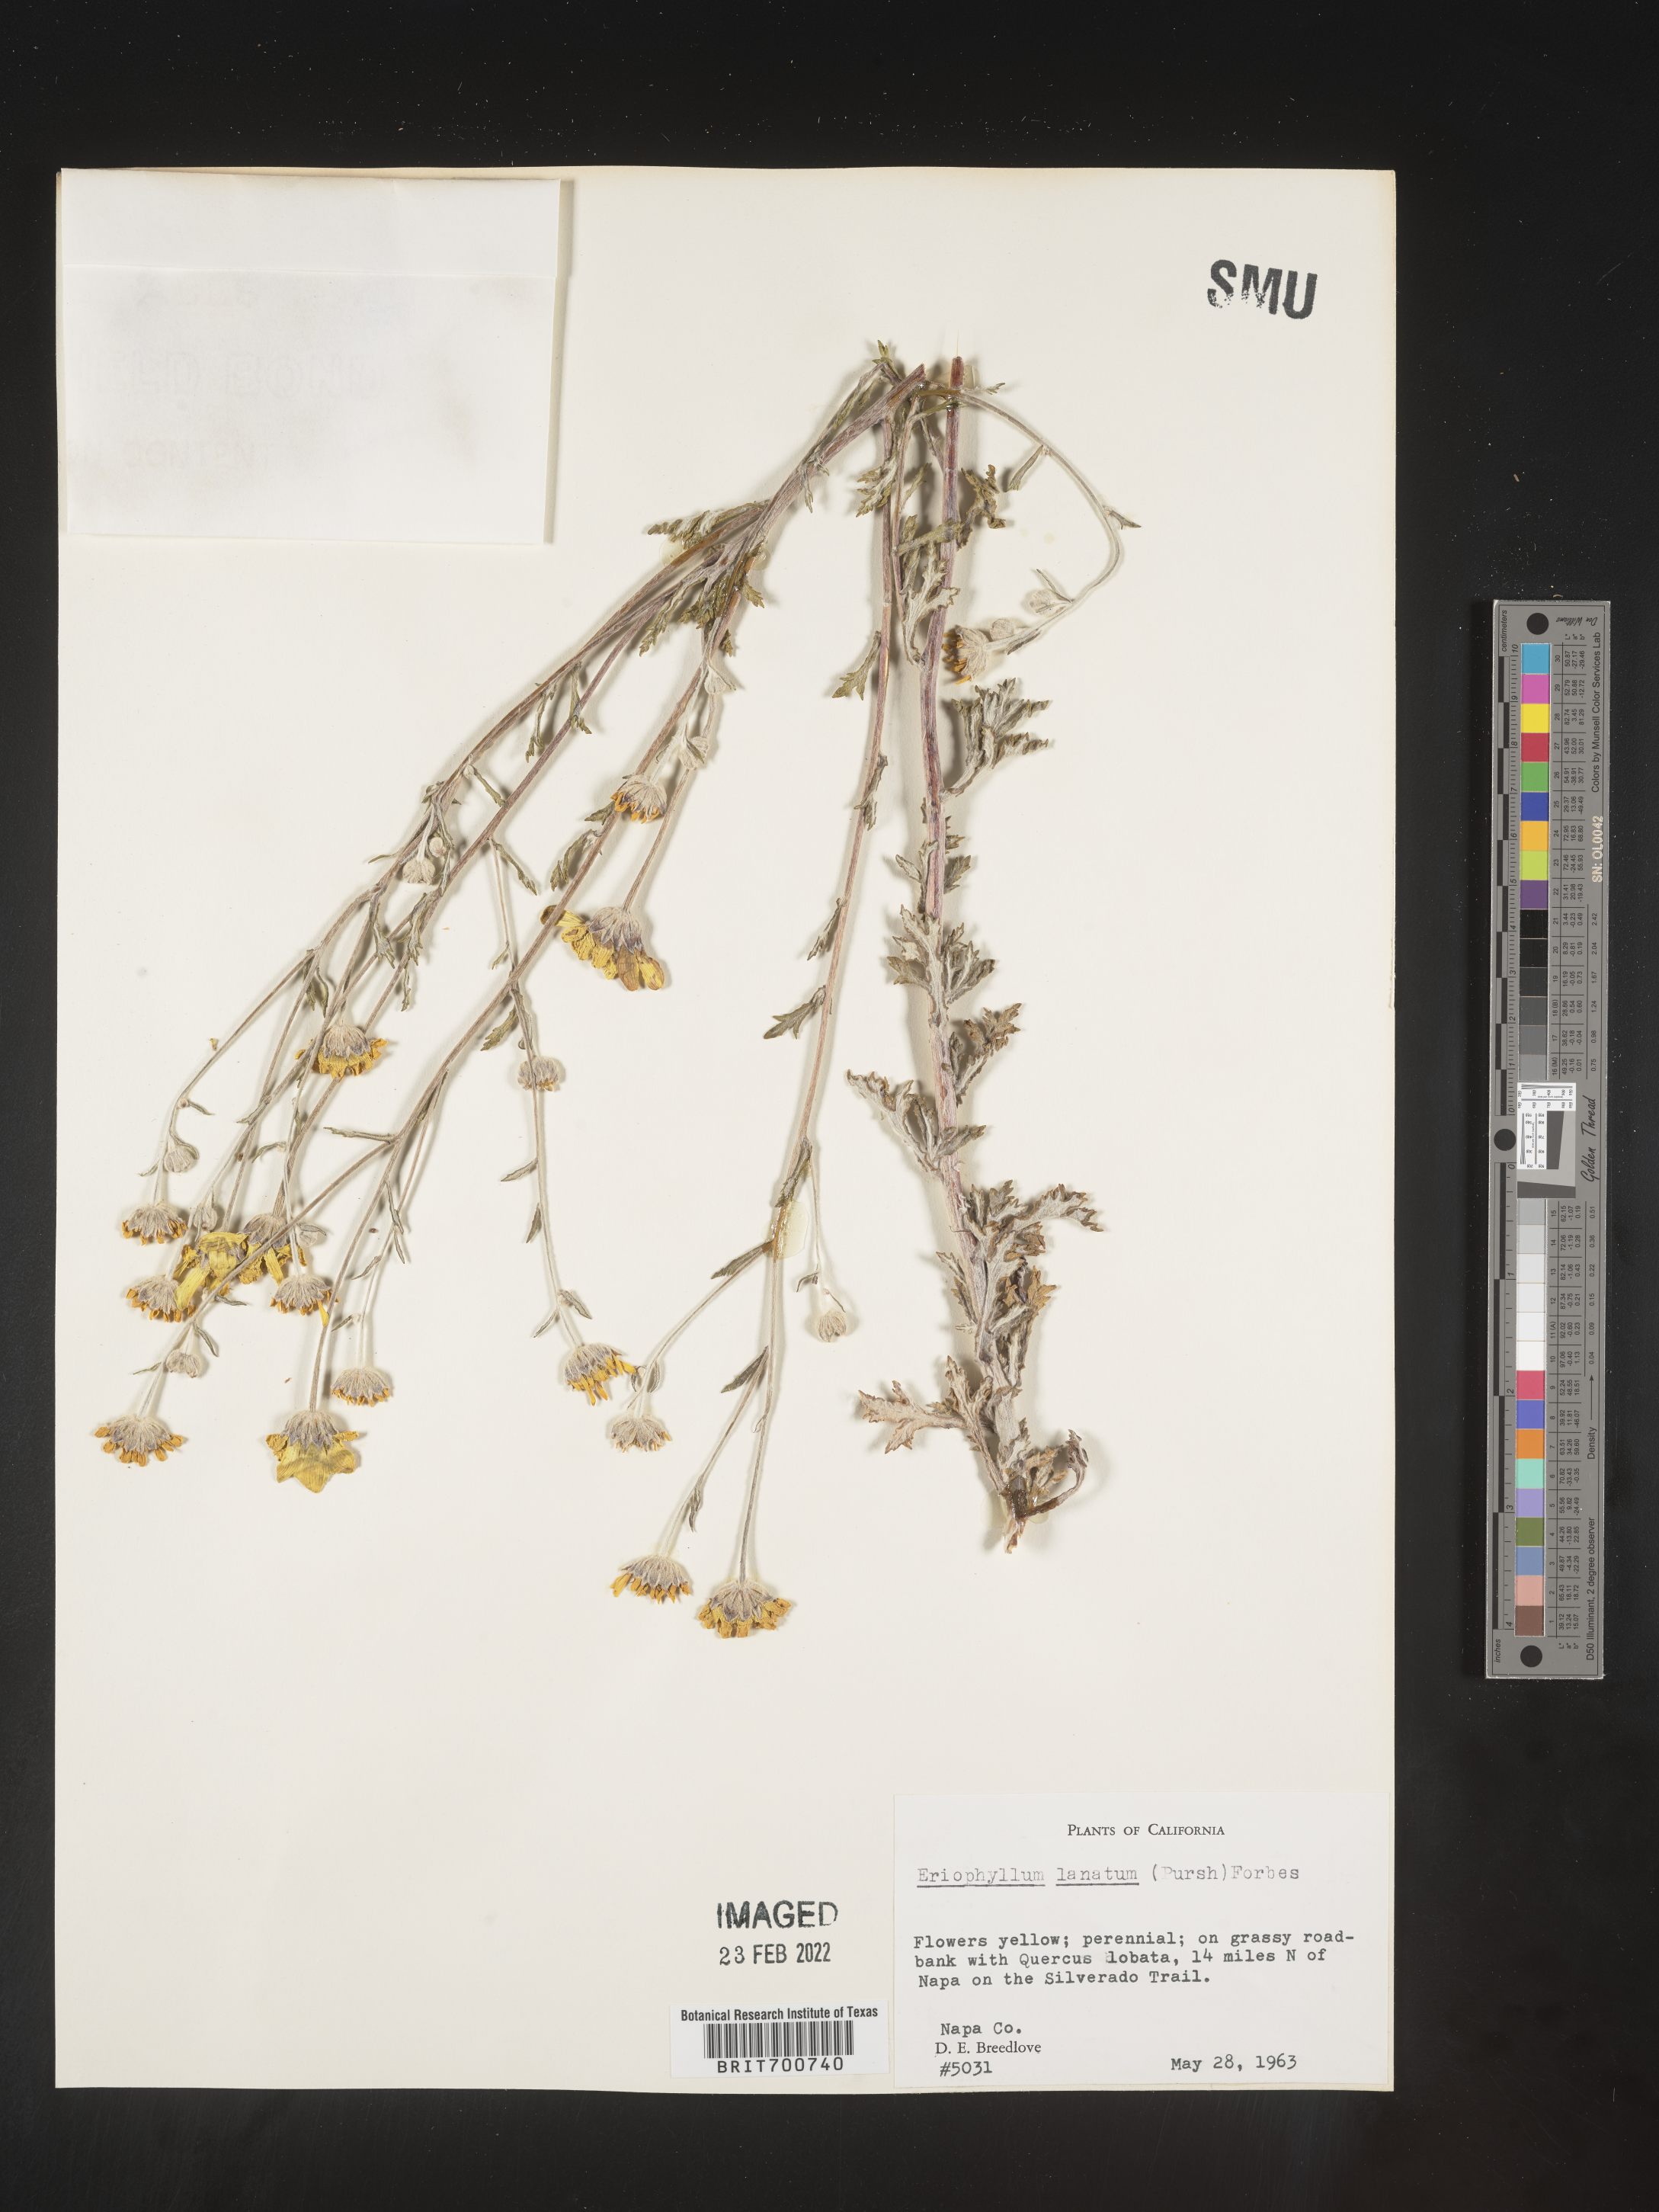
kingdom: Plantae
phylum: Tracheophyta
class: Magnoliopsida
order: Asterales
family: Asteraceae
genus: Eriophyllum
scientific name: Eriophyllum lanatum
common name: Common woolly-sunflower
